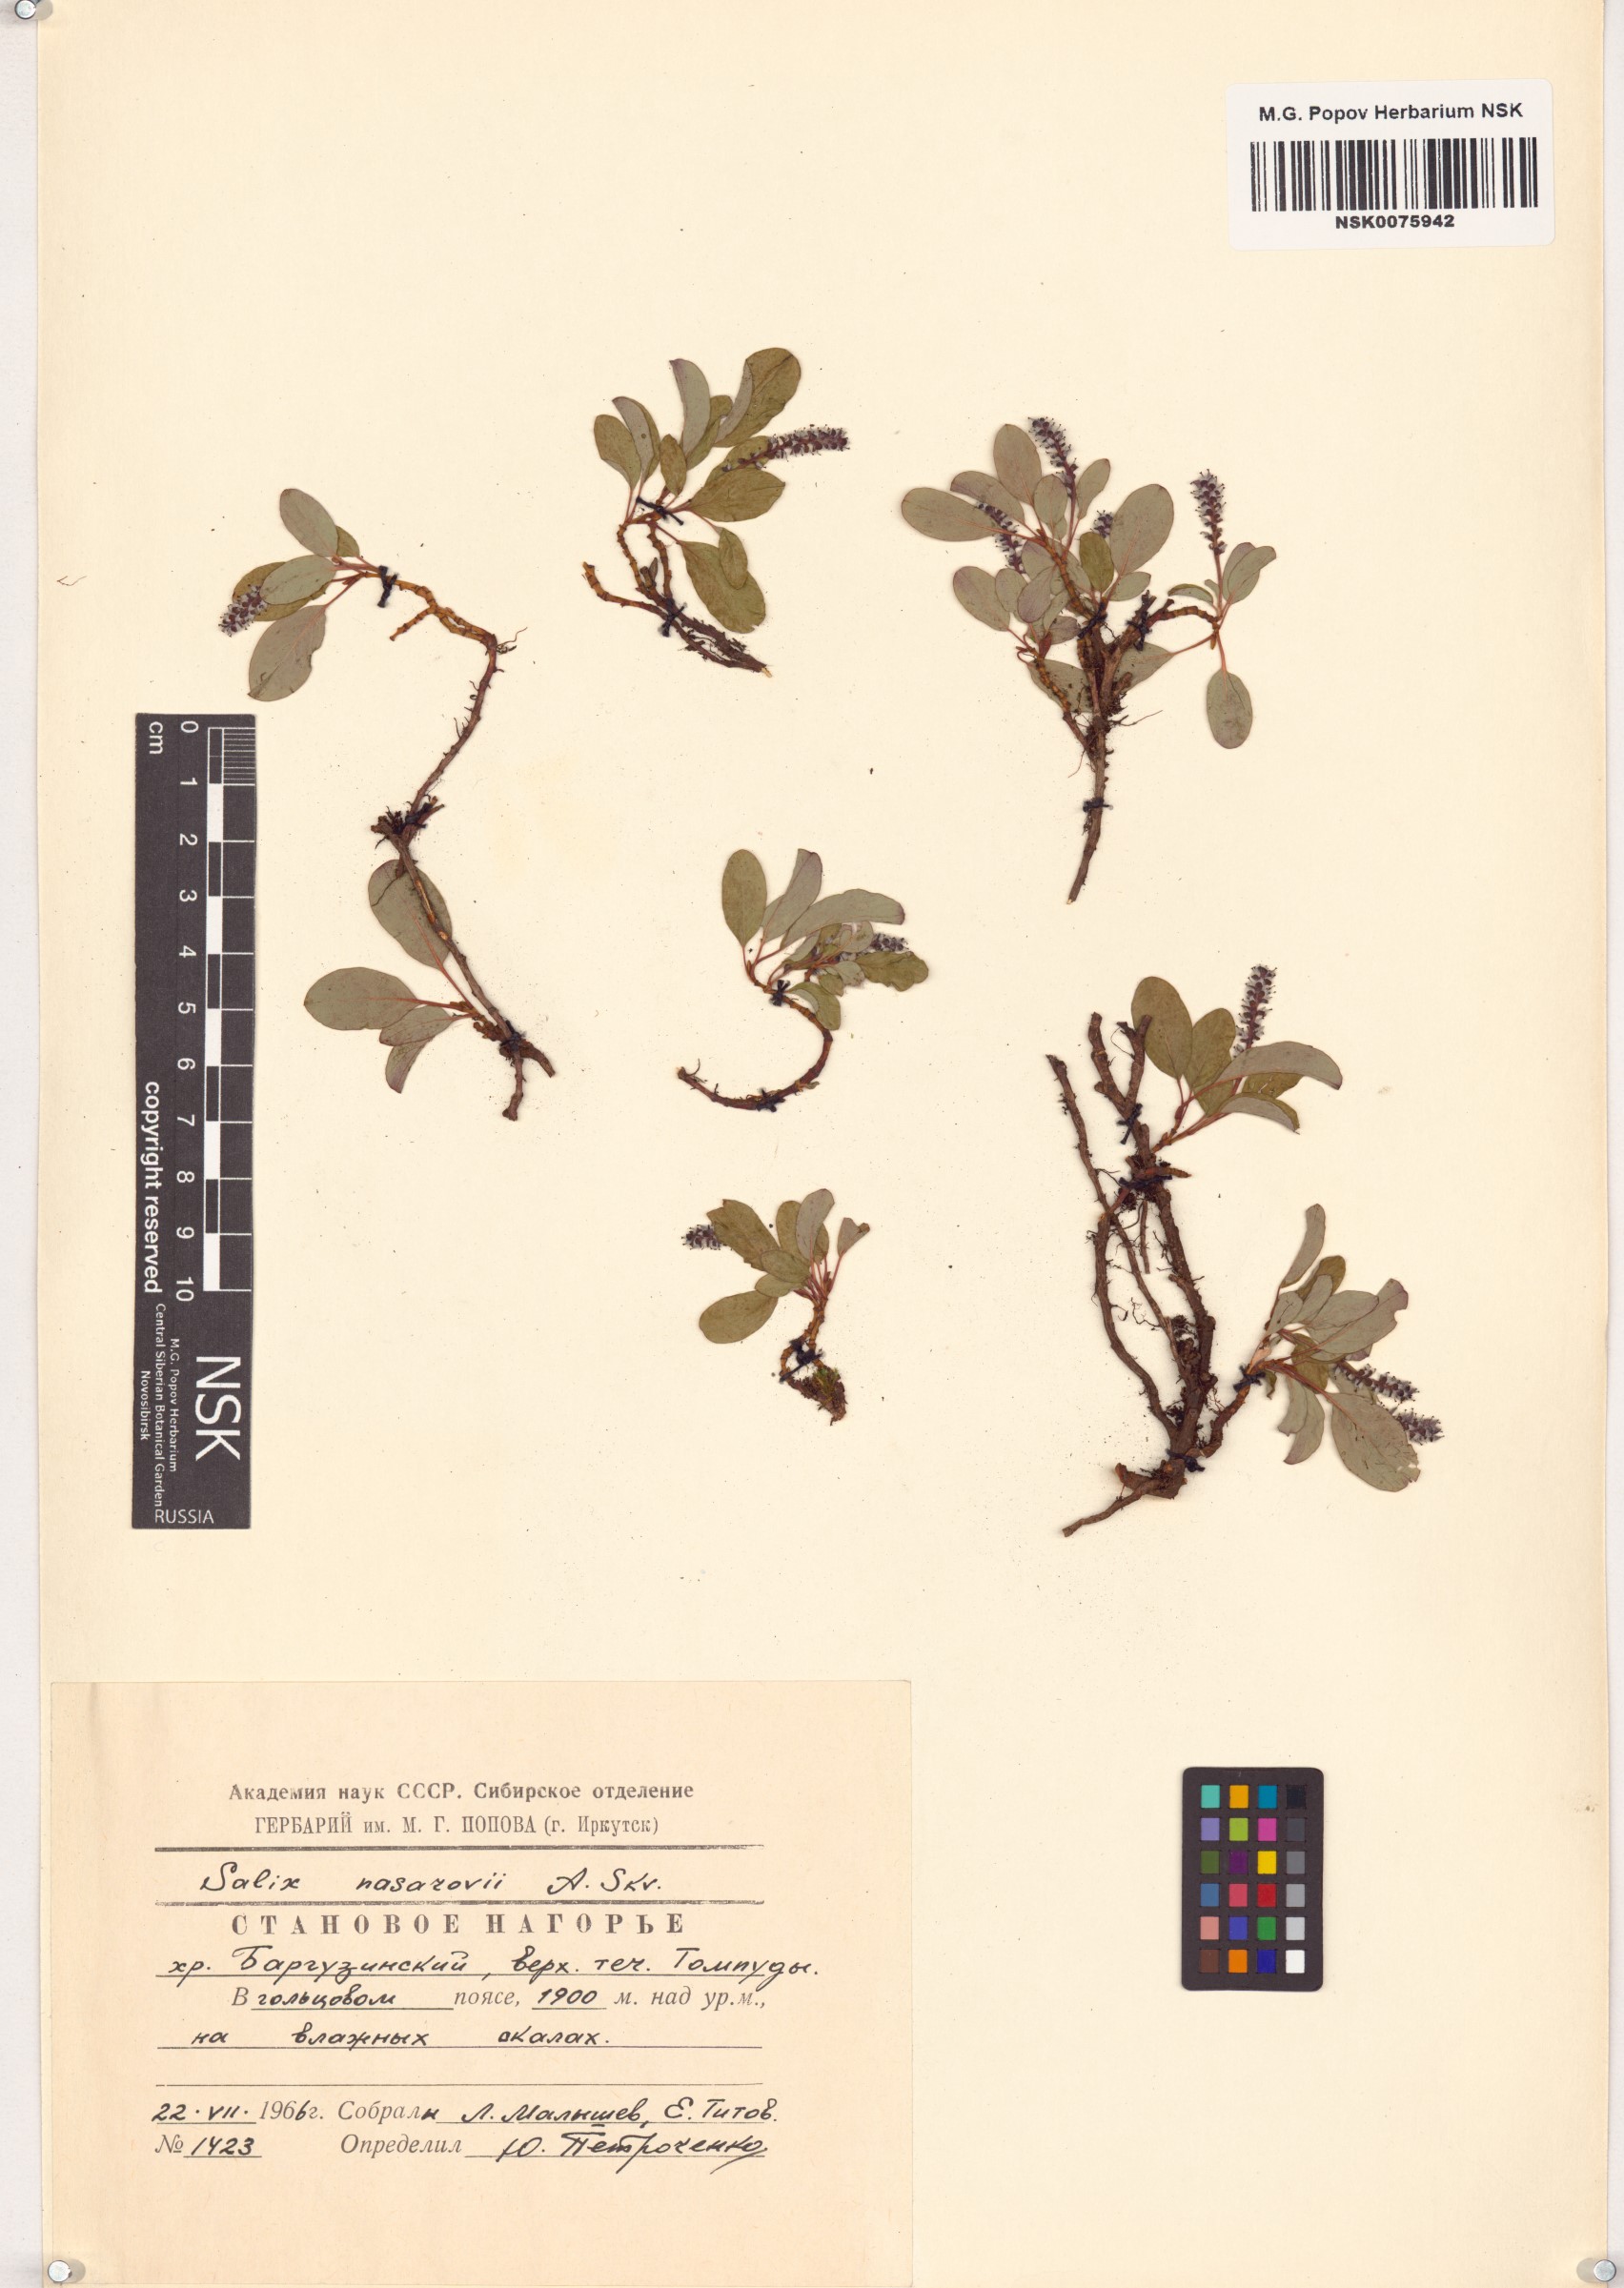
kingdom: Plantae
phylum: Tracheophyta
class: Magnoliopsida
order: Malpighiales
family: Salicaceae
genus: Salix
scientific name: Salix nasarovii
